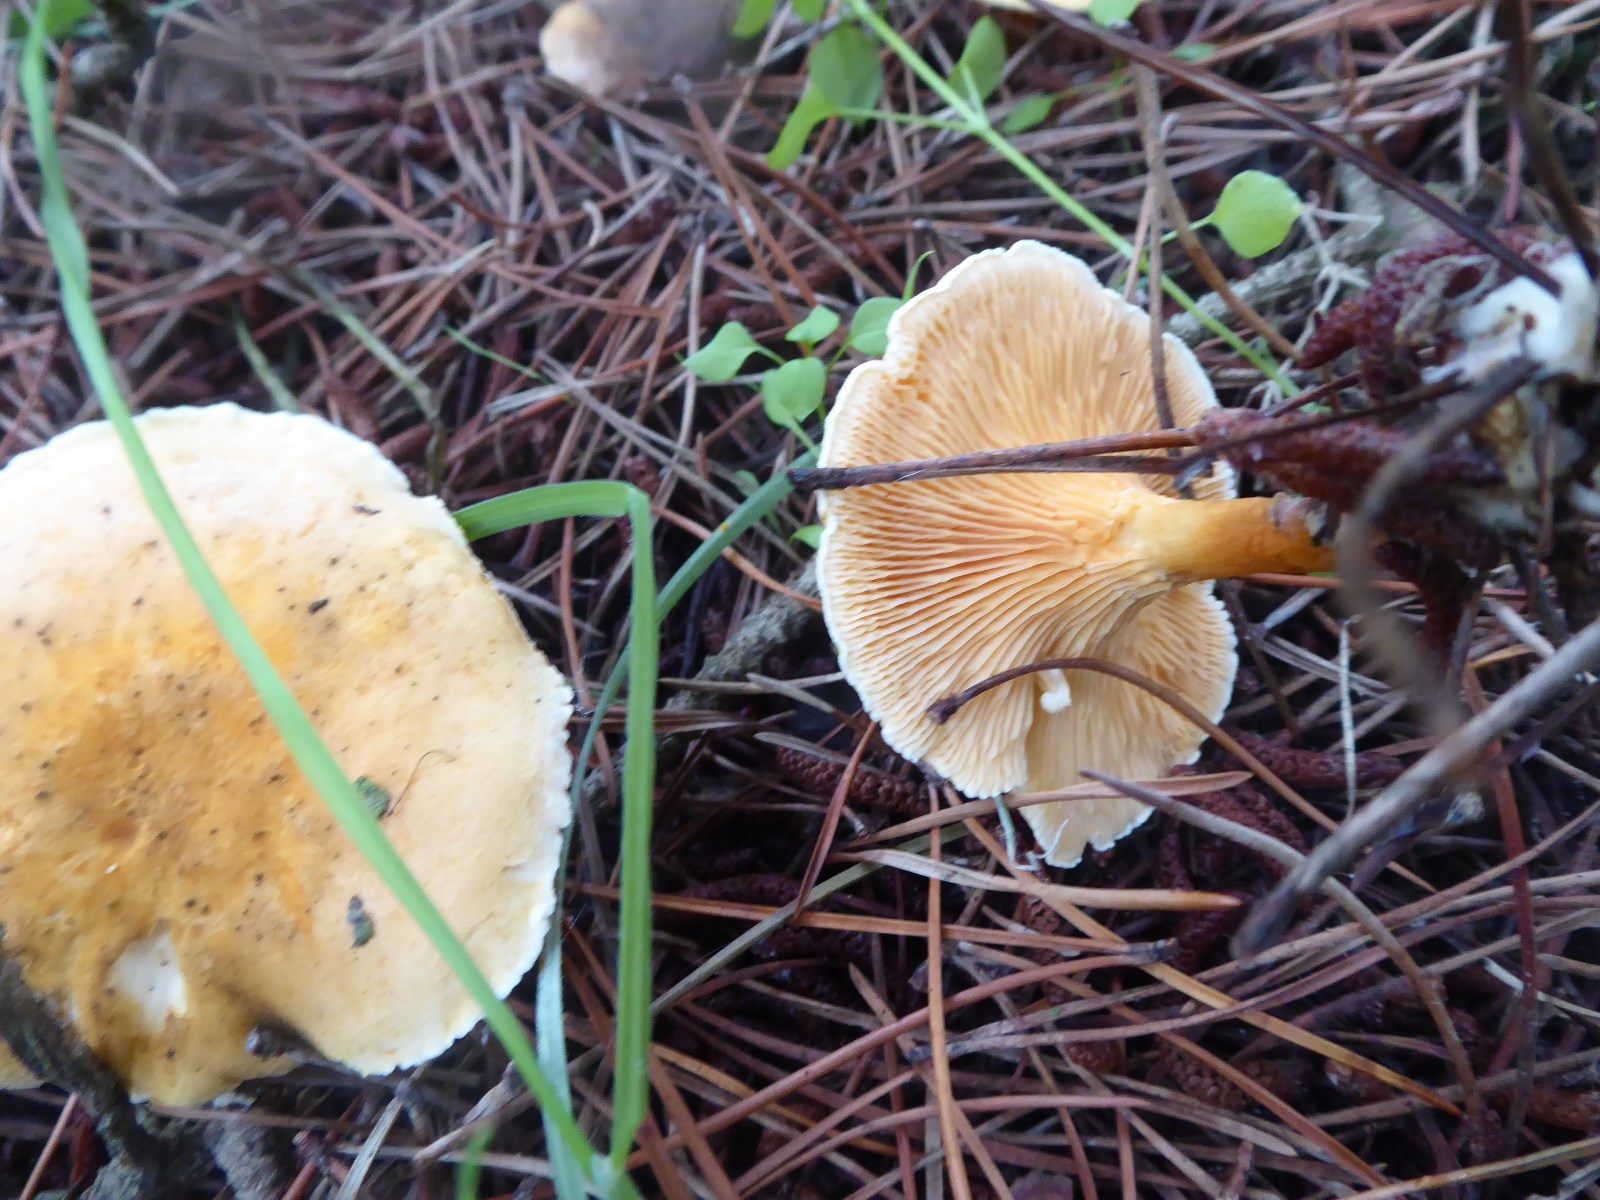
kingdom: Fungi
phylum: Basidiomycota
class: Agaricomycetes
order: Boletales
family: Hygrophoropsidaceae
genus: Hygrophoropsis
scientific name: Hygrophoropsis
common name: orangekantarel
